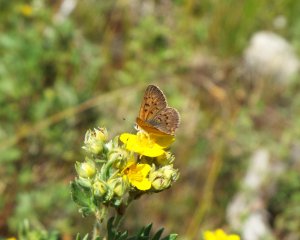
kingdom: Animalia
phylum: Arthropoda
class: Insecta
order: Lepidoptera
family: Lycaenidae
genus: Epidemia
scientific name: Epidemia dorcas
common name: Dorcas Copper
